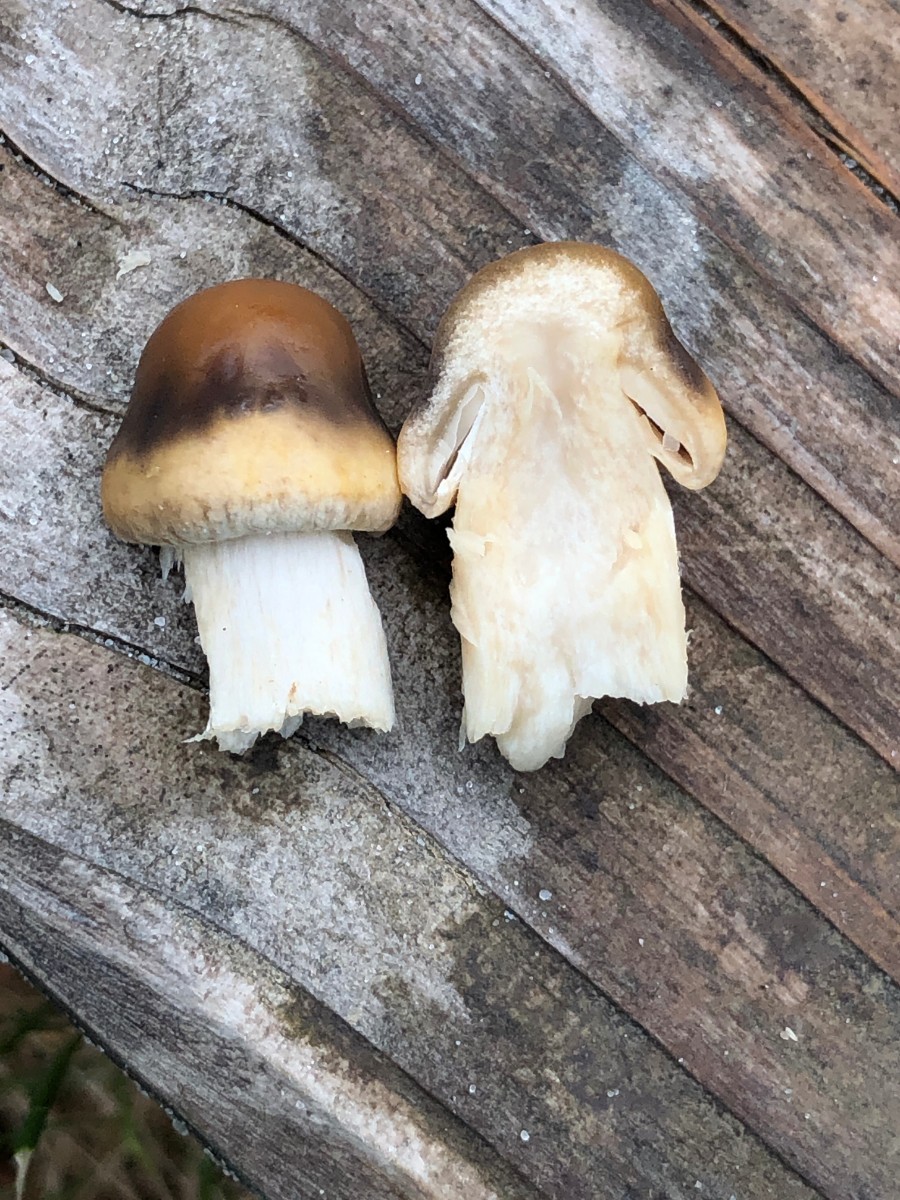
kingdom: Fungi
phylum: Basidiomycota
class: Agaricomycetes
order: Agaricales
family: Strophariaceae
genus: Agrocybe
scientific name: Agrocybe praecox
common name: tidlig agerhat
